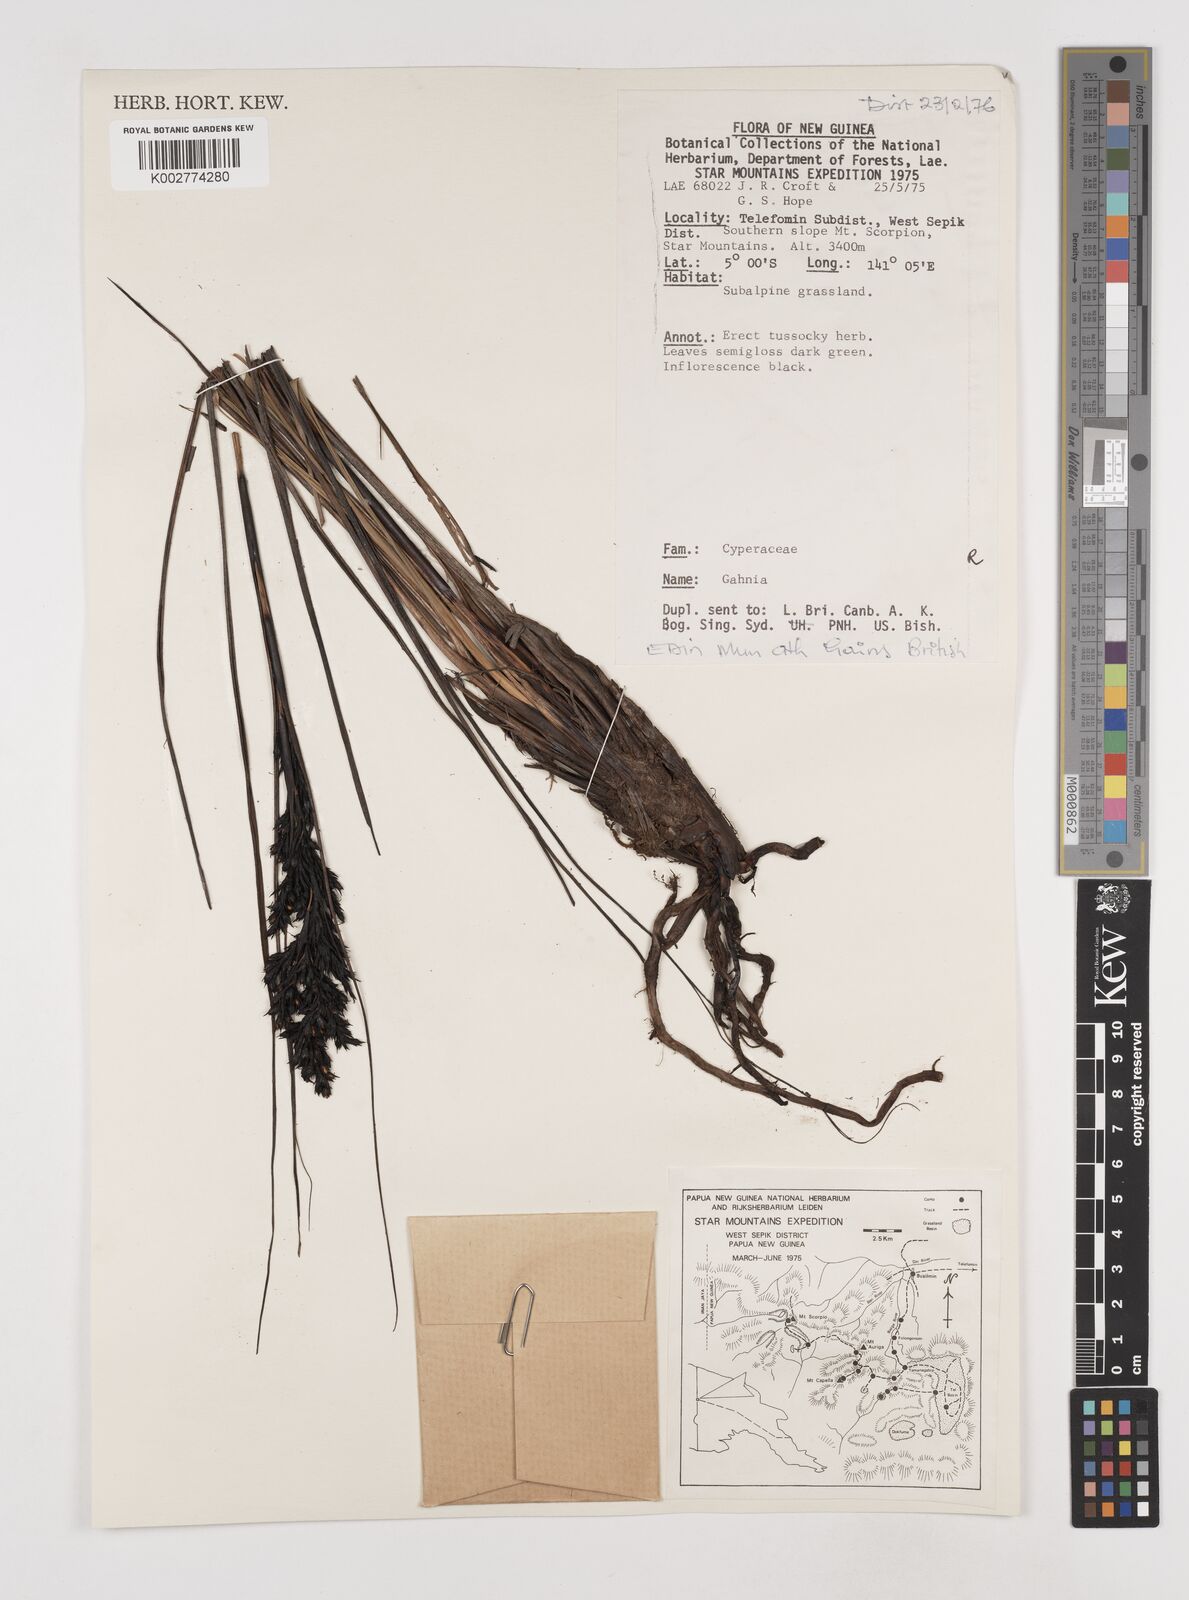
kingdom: Plantae
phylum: Tracheophyta
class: Liliopsida
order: Poales
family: Cyperaceae
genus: Gahnia
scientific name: Gahnia
